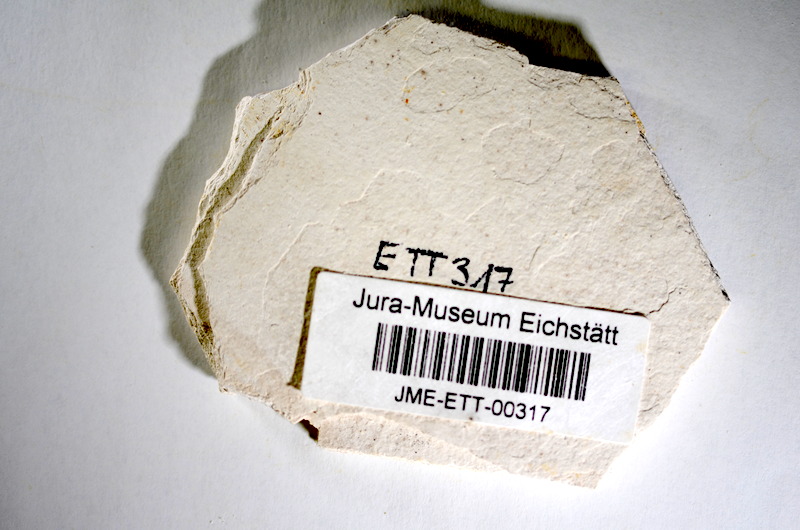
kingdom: Animalia
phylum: Chordata
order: Salmoniformes
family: Orthogonikleithridae
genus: Orthogonikleithrus
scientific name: Orthogonikleithrus hoelli
